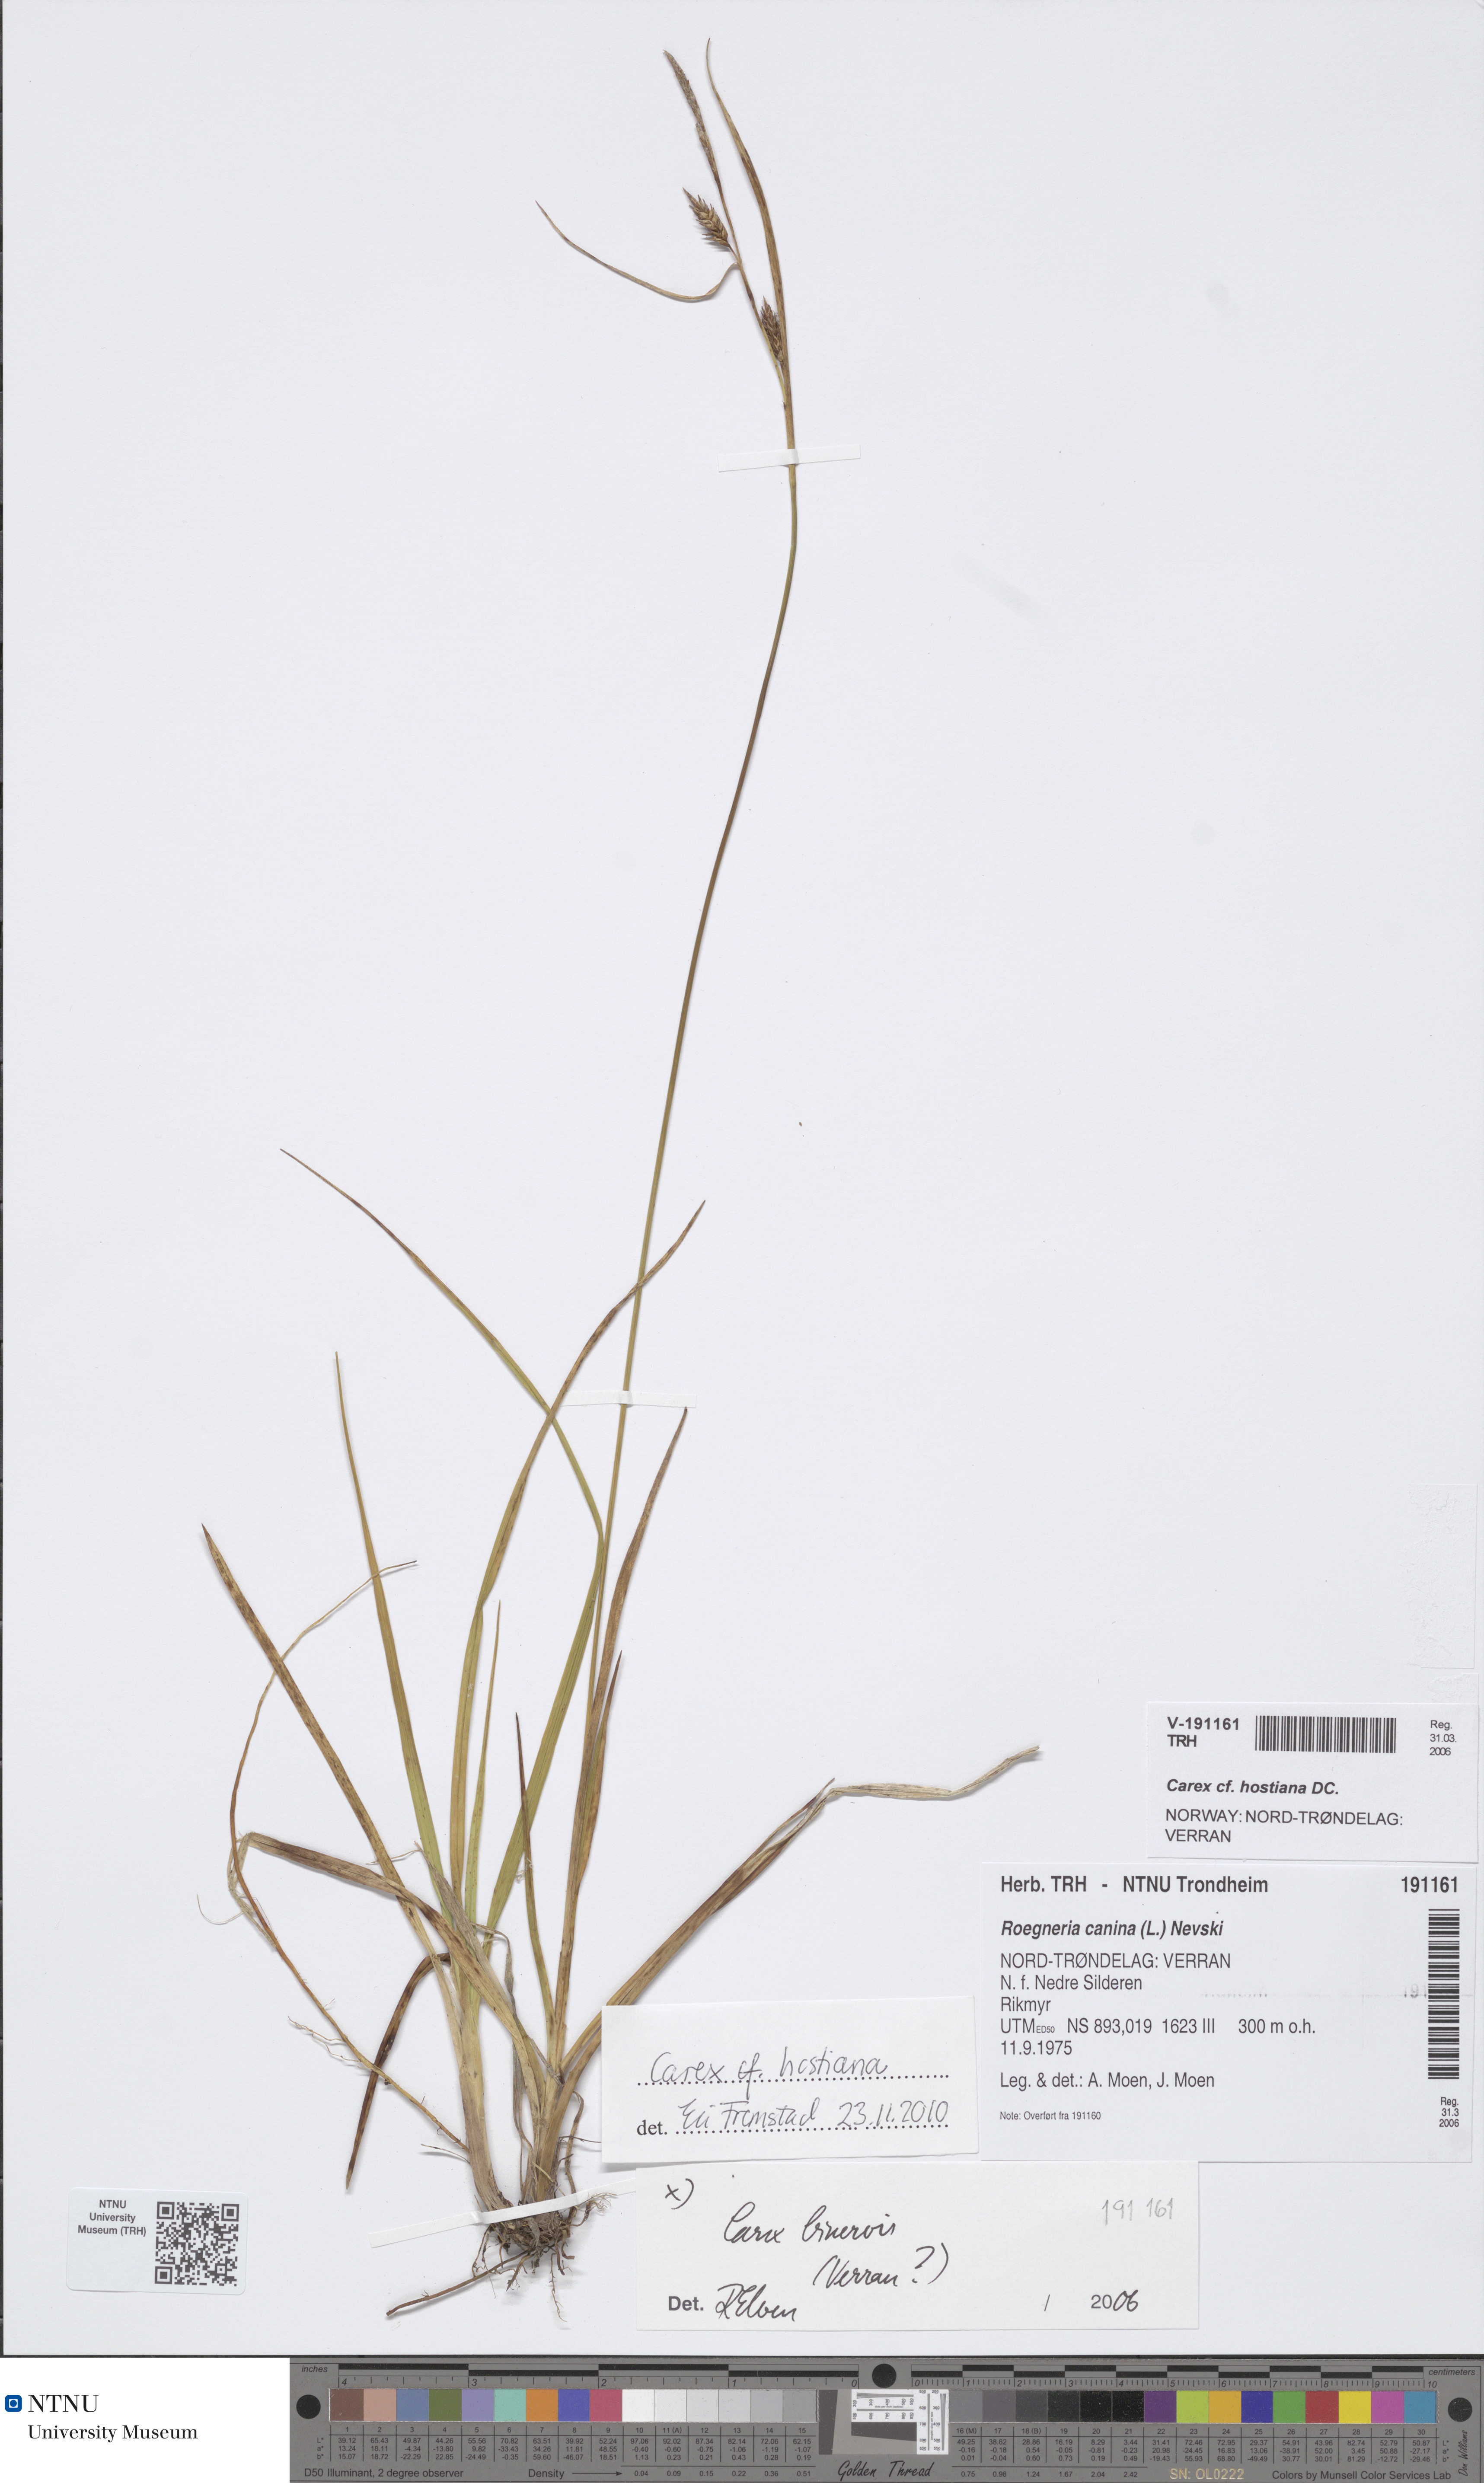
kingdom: Plantae
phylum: Tracheophyta
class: Liliopsida
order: Poales
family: Cyperaceae
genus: Carex
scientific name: Carex hostiana
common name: Tawny sedge
